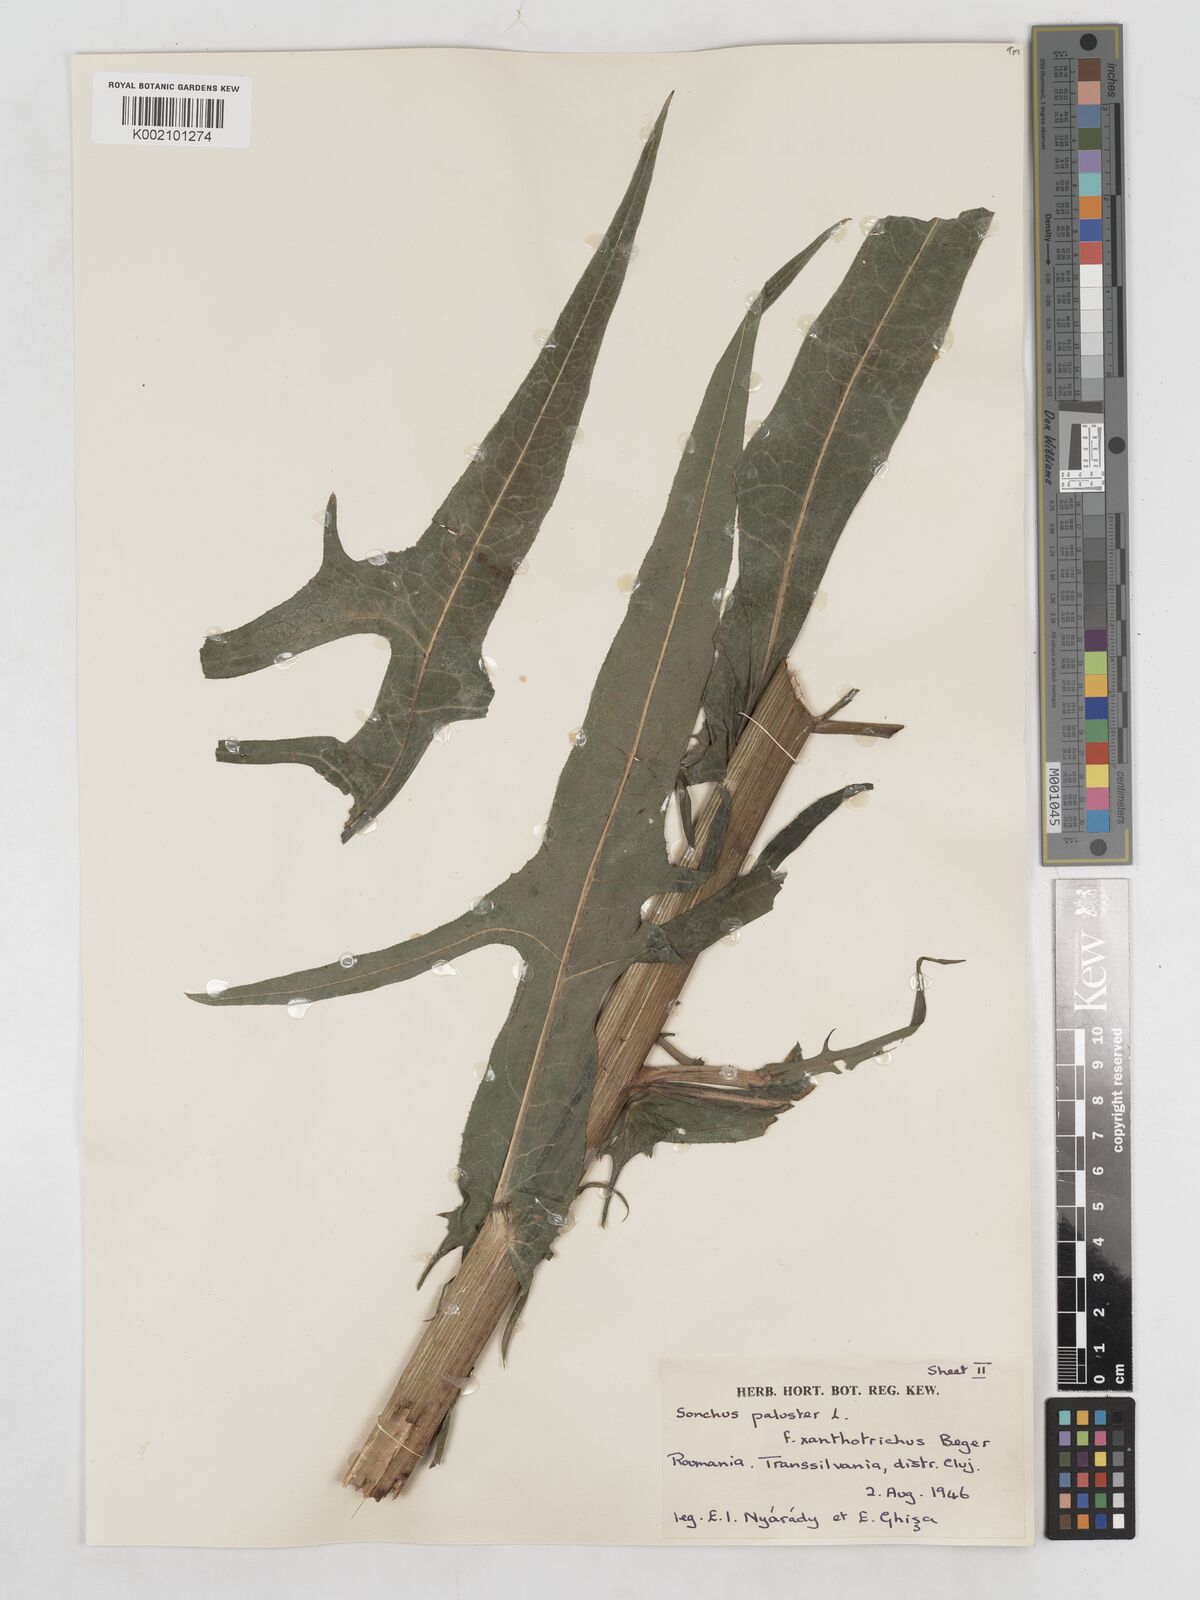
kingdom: Plantae
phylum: Tracheophyta
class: Magnoliopsida
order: Asterales
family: Asteraceae
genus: Sonchus
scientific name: Sonchus palustris
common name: Marsh sow-thistle
